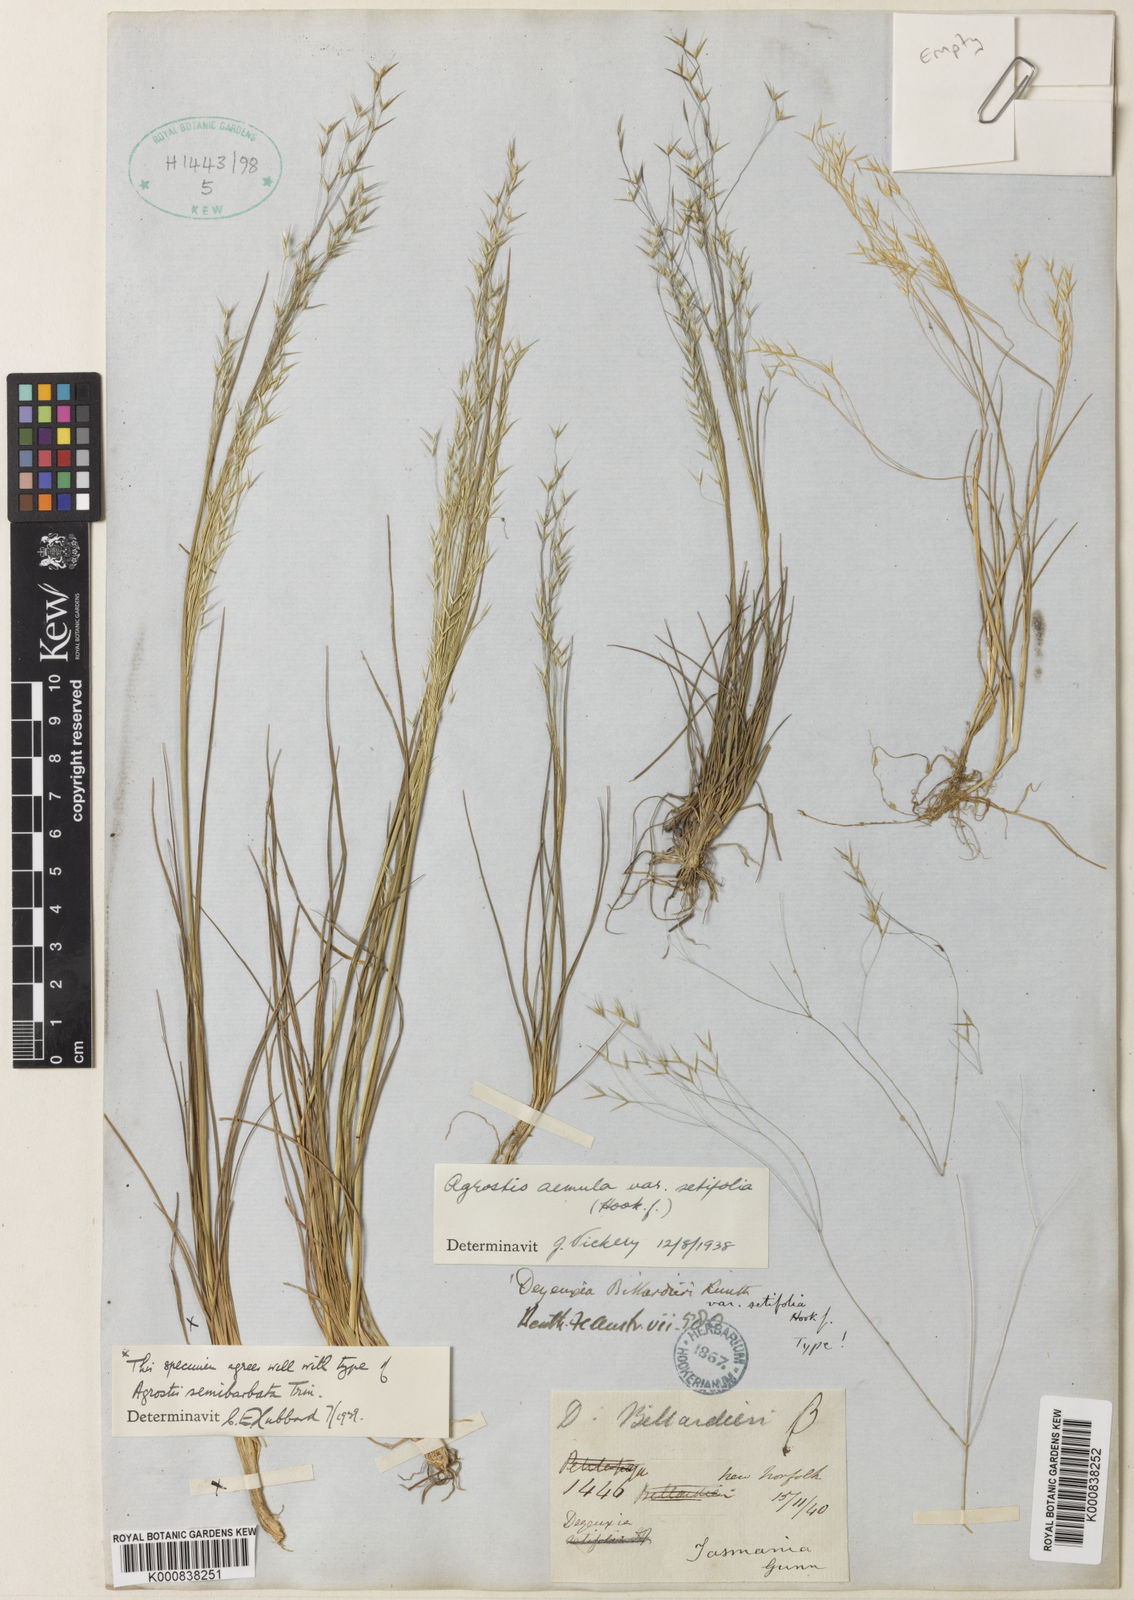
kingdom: Plantae
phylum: Tracheophyta
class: Liliopsida
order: Poales
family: Poaceae
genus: Lachnagrostis
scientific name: Lachnagrostis
